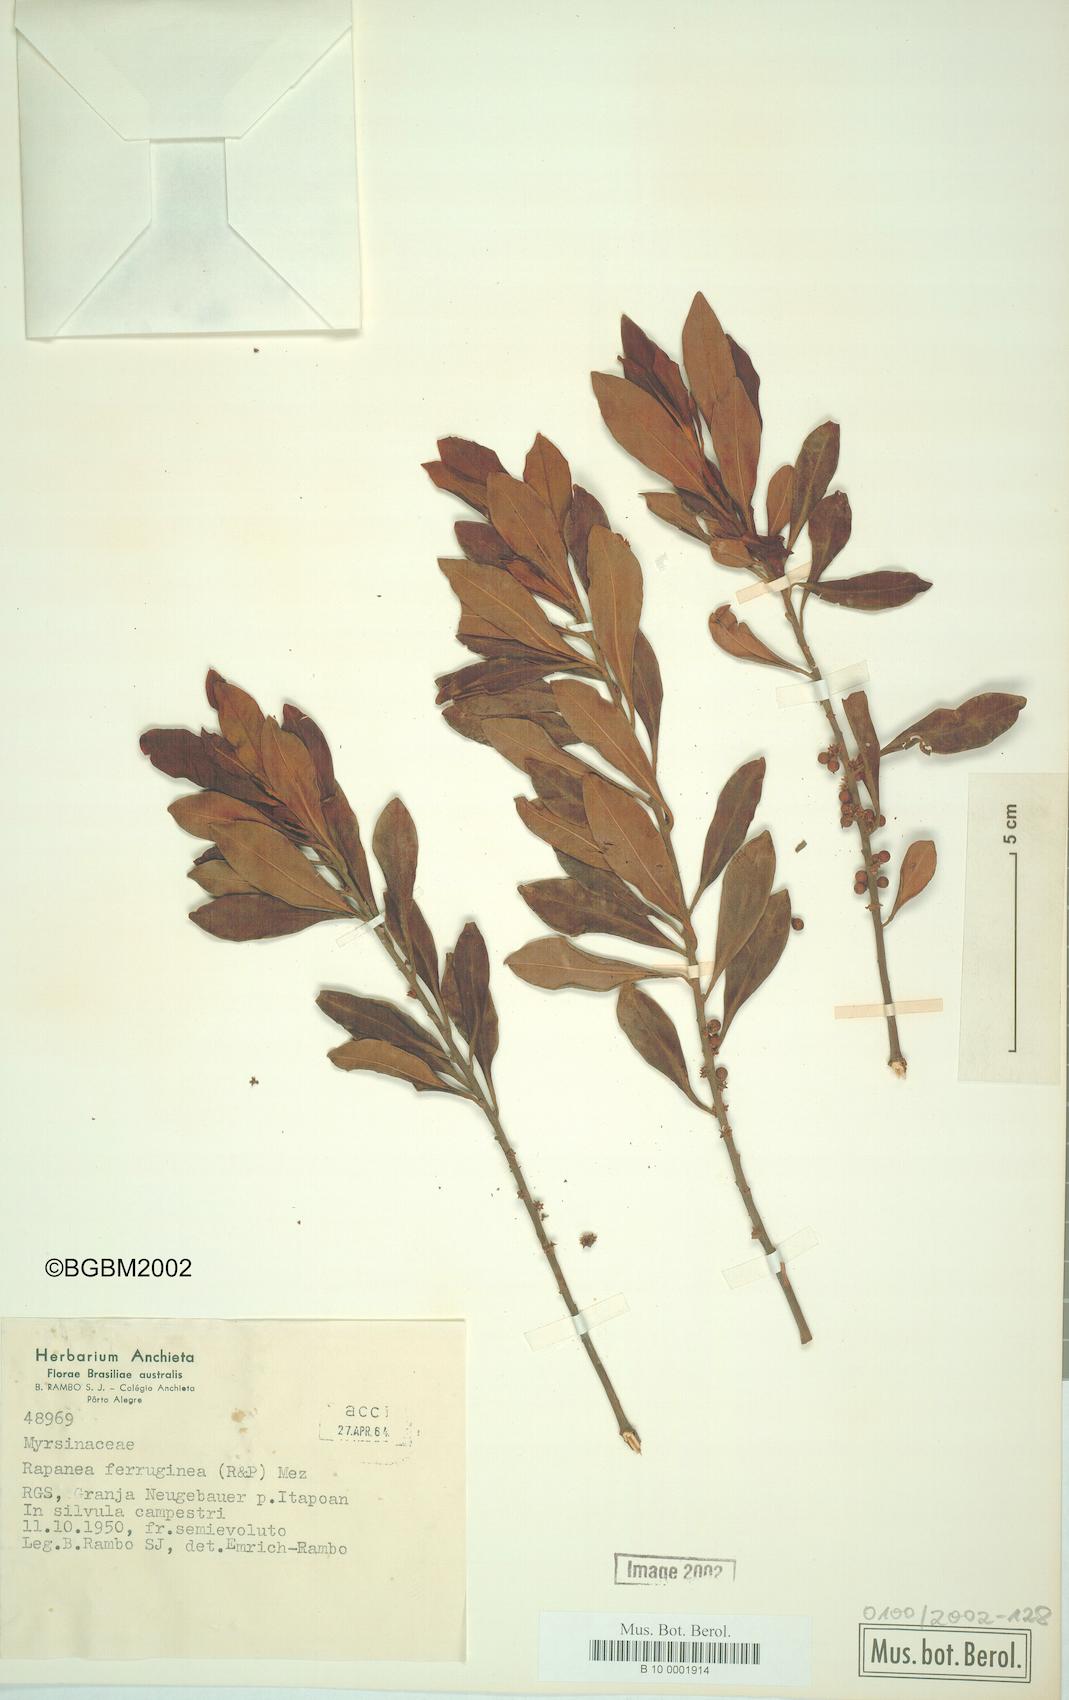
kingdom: Plantae
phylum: Tracheophyta
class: Magnoliopsida
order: Ericales
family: Primulaceae
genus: Myrsine
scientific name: Myrsine coriacea
